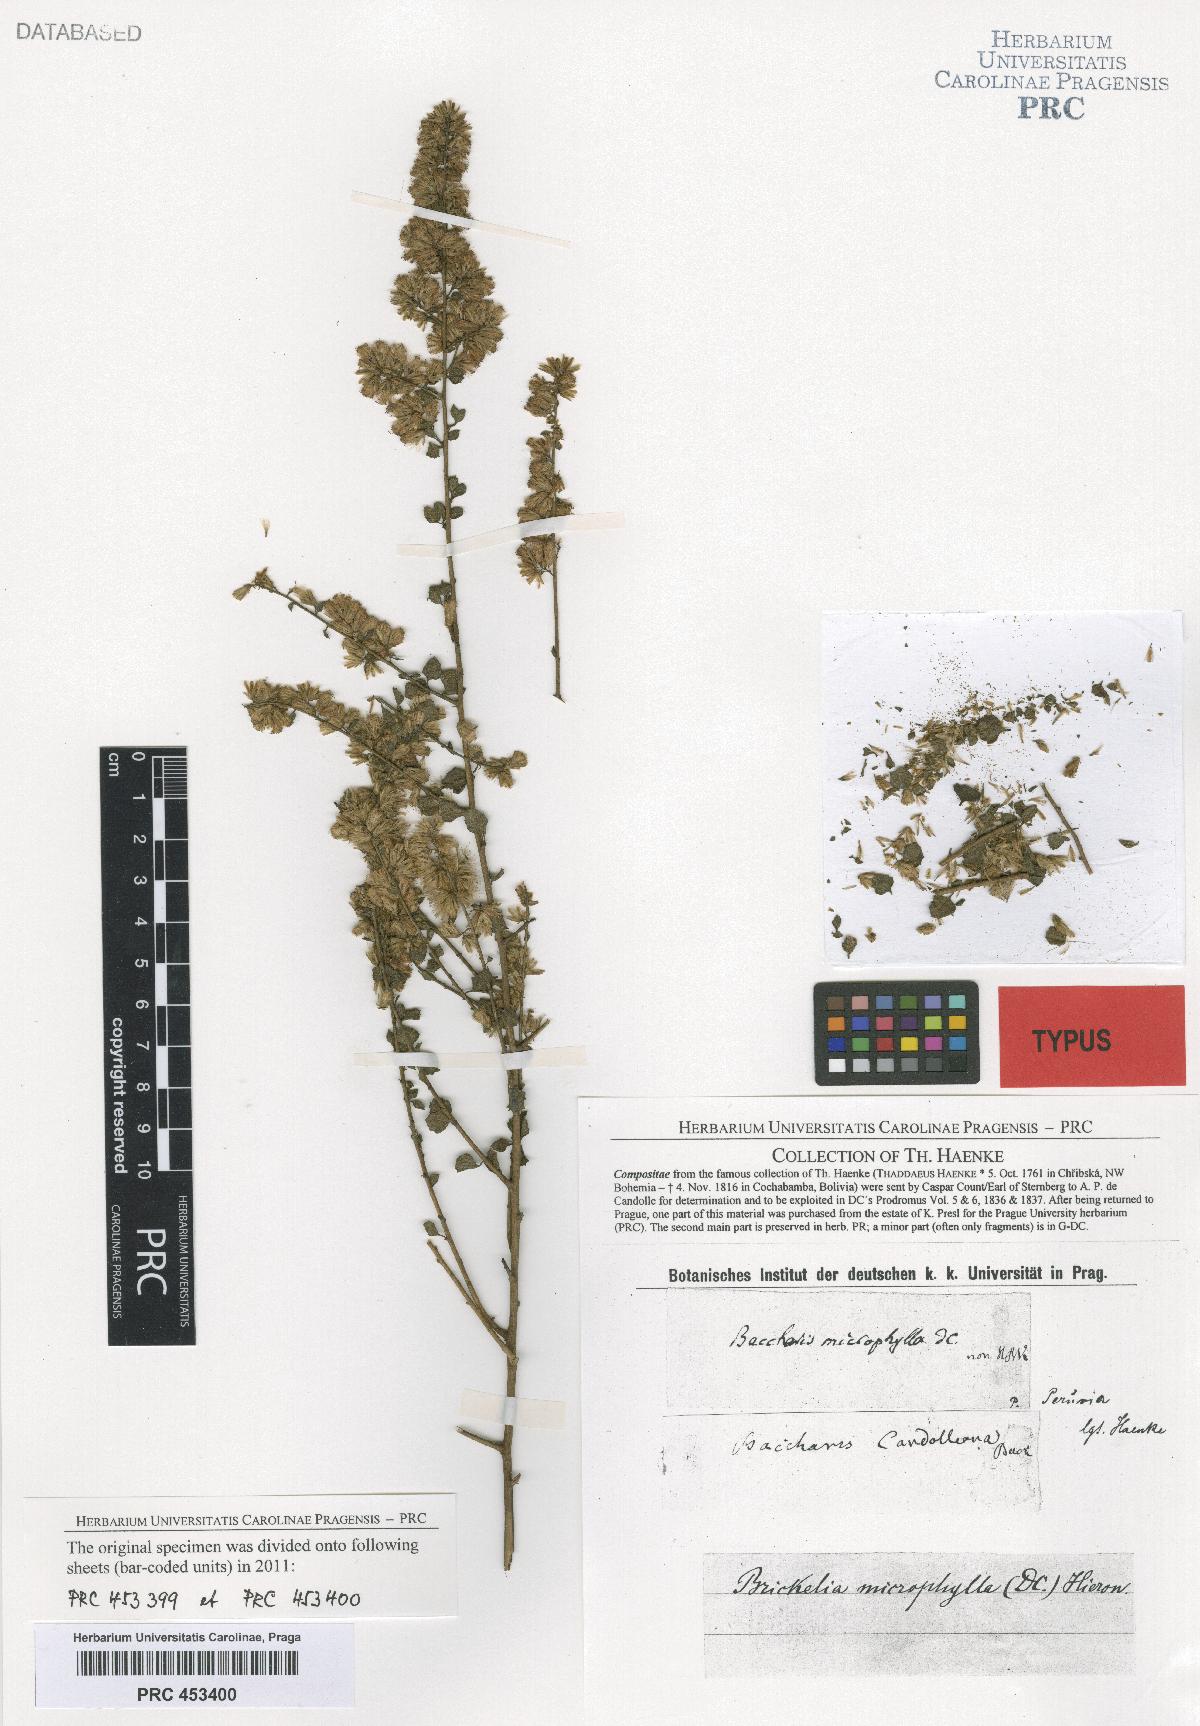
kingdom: Plantae
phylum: Tracheophyta
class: Magnoliopsida
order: Asterales
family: Asteraceae
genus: Nothobaccharis
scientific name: Nothobaccharis candolleana
